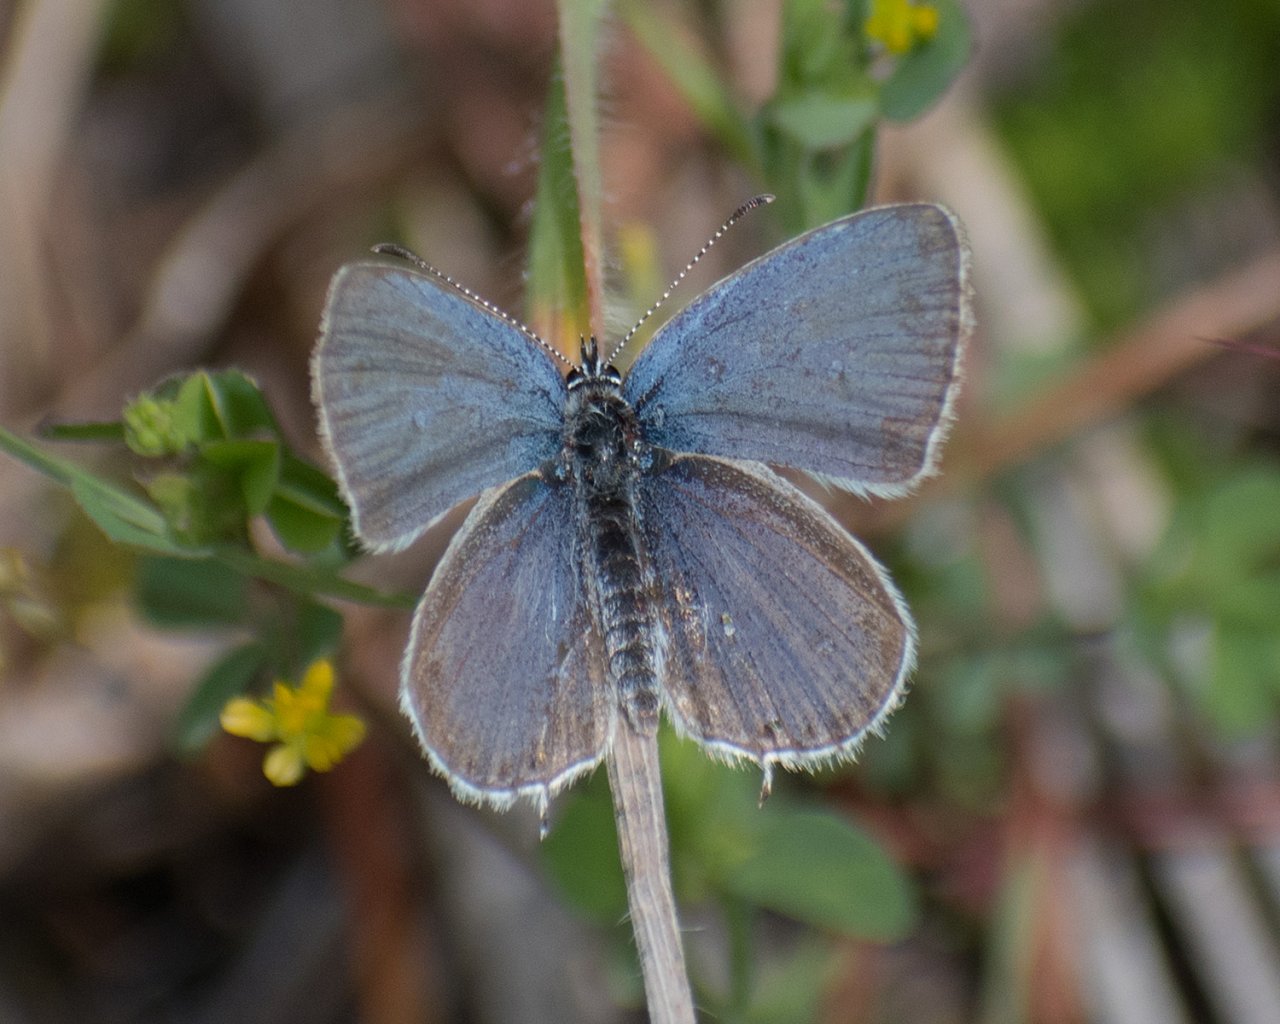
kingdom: Animalia
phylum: Arthropoda
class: Insecta
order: Lepidoptera
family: Lycaenidae
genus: Elkalyce
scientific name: Elkalyce amyntula
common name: Western Tailed-Blue
